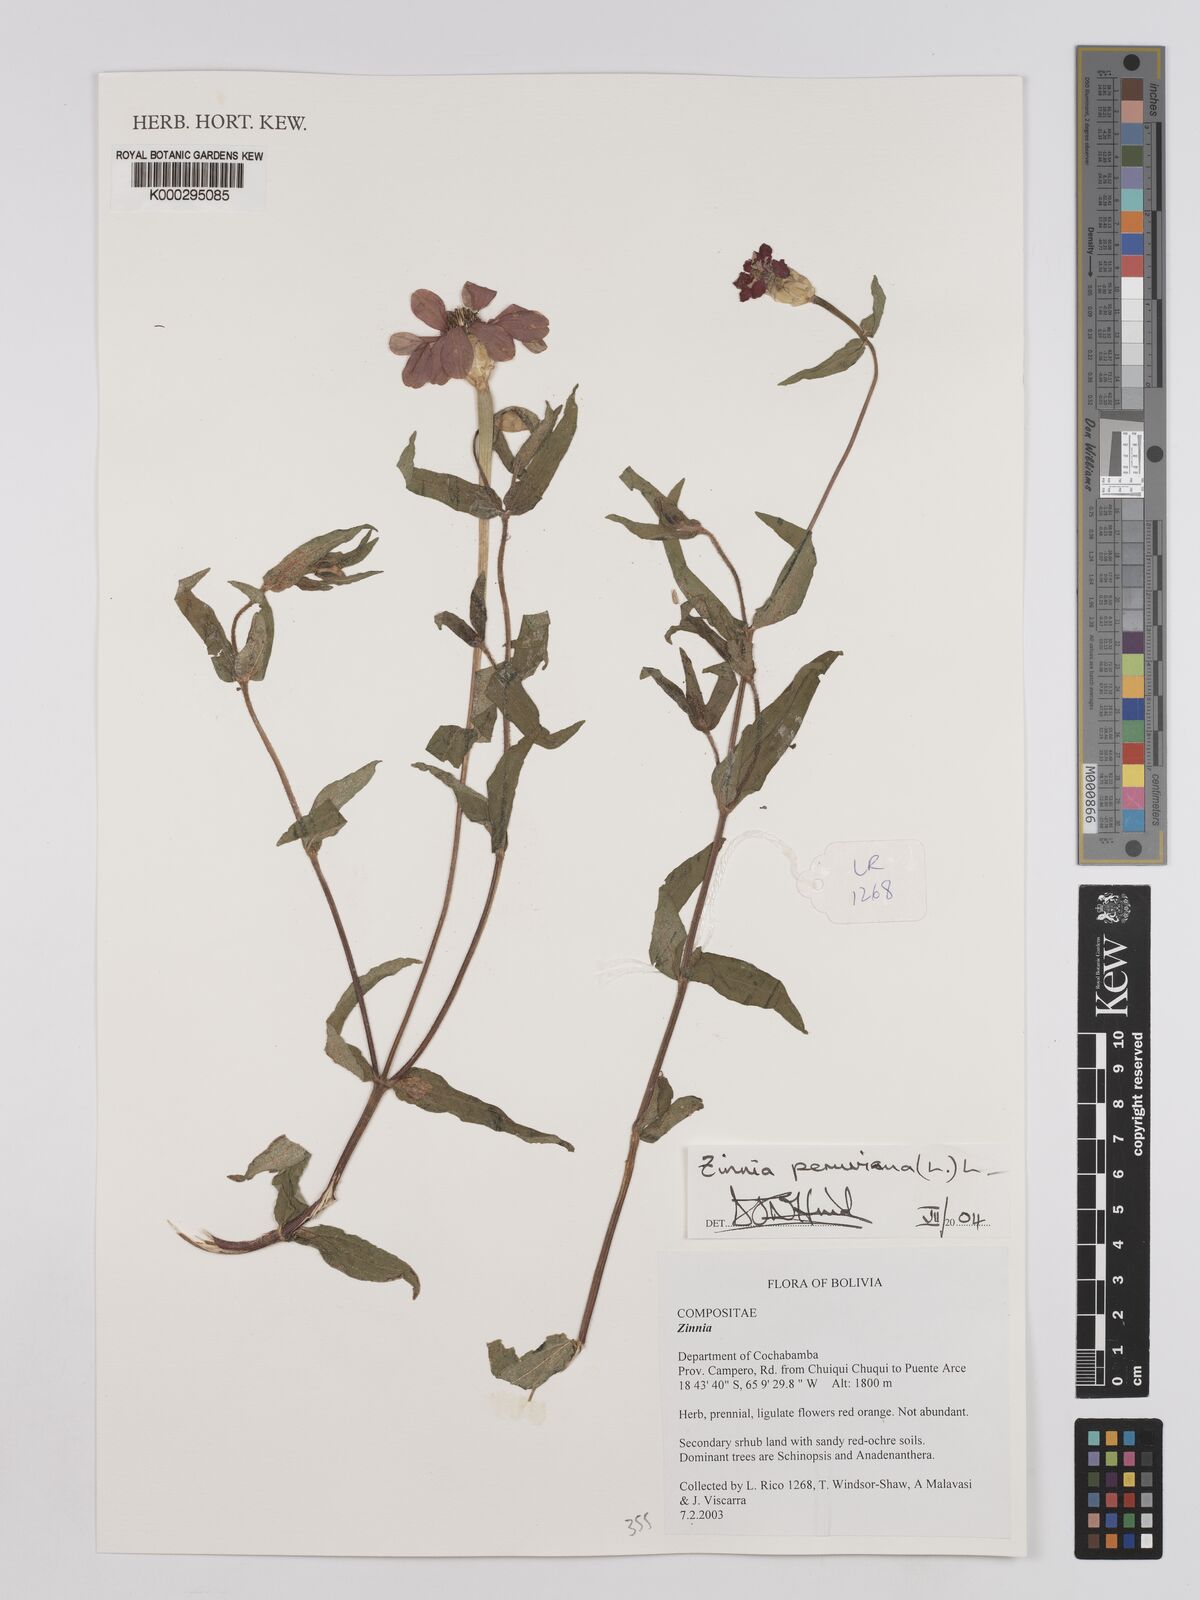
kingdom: Plantae
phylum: Tracheophyta
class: Magnoliopsida
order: Asterales
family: Asteraceae
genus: Zinnia
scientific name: Zinnia peruviana
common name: Peruvian zinnia
